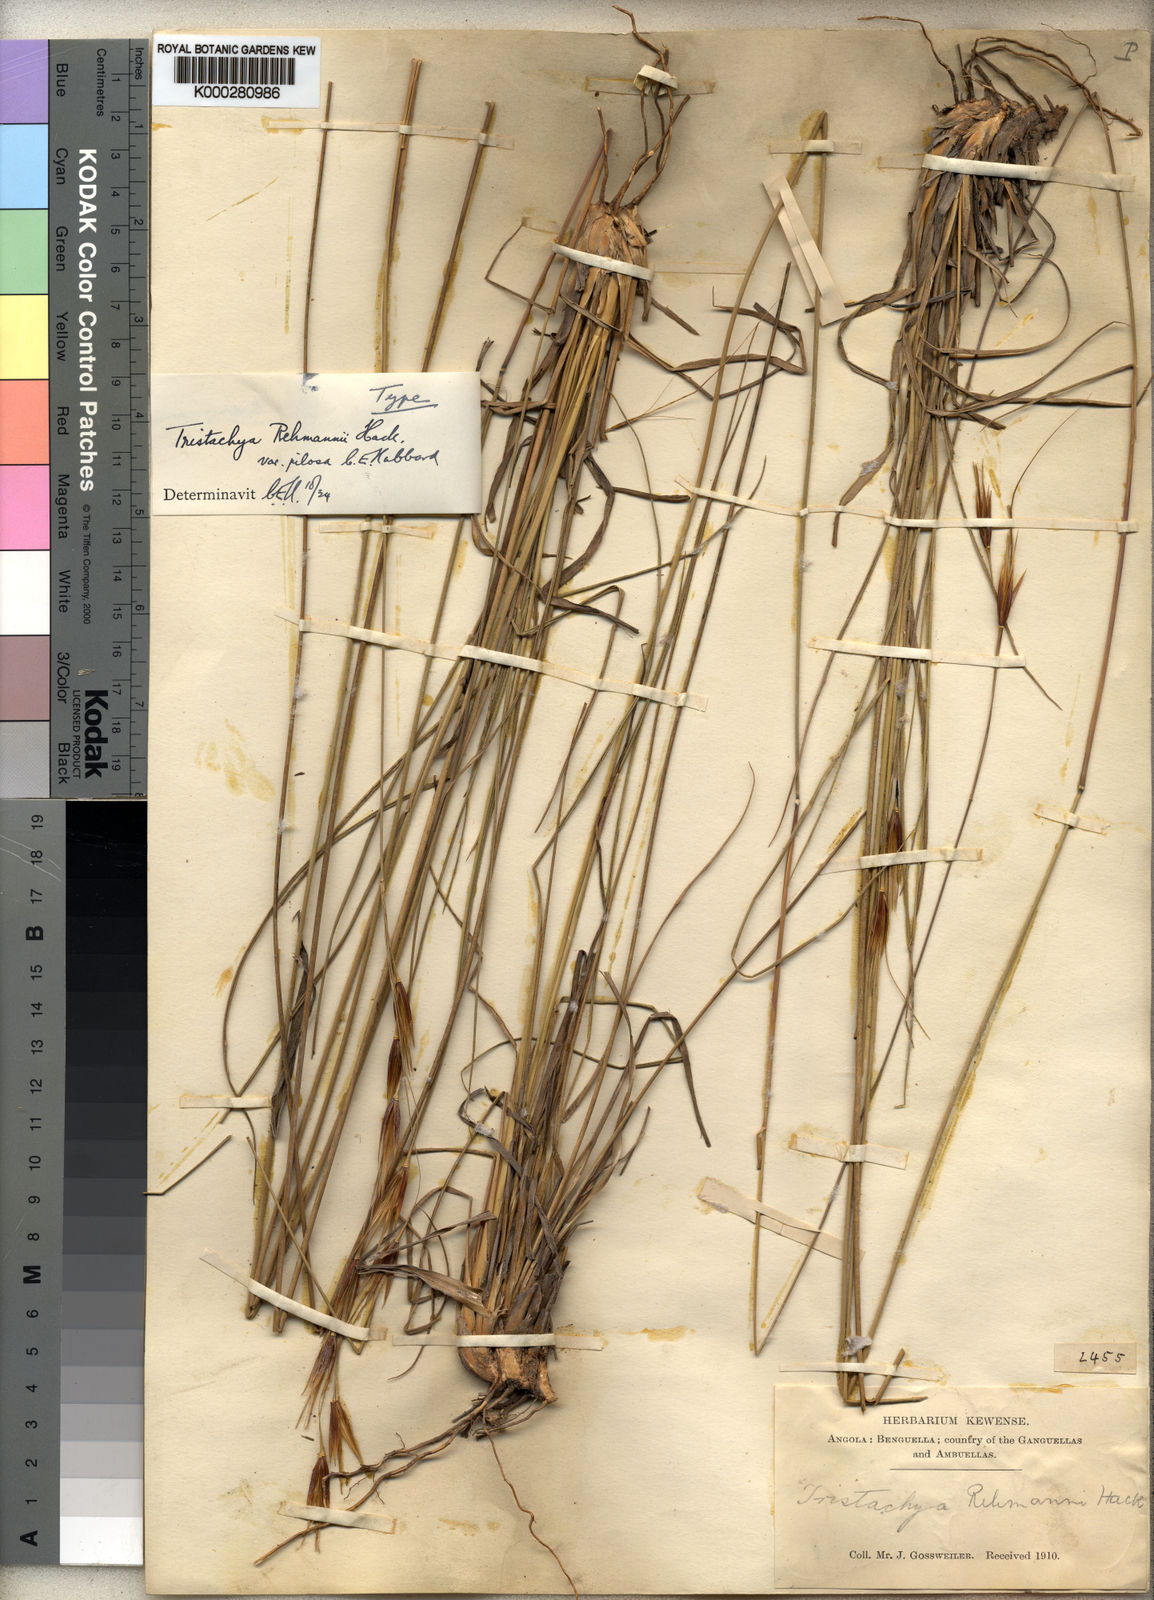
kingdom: Plantae
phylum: Tracheophyta
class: Liliopsida
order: Poales
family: Poaceae
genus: Tristachya
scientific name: Tristachya
